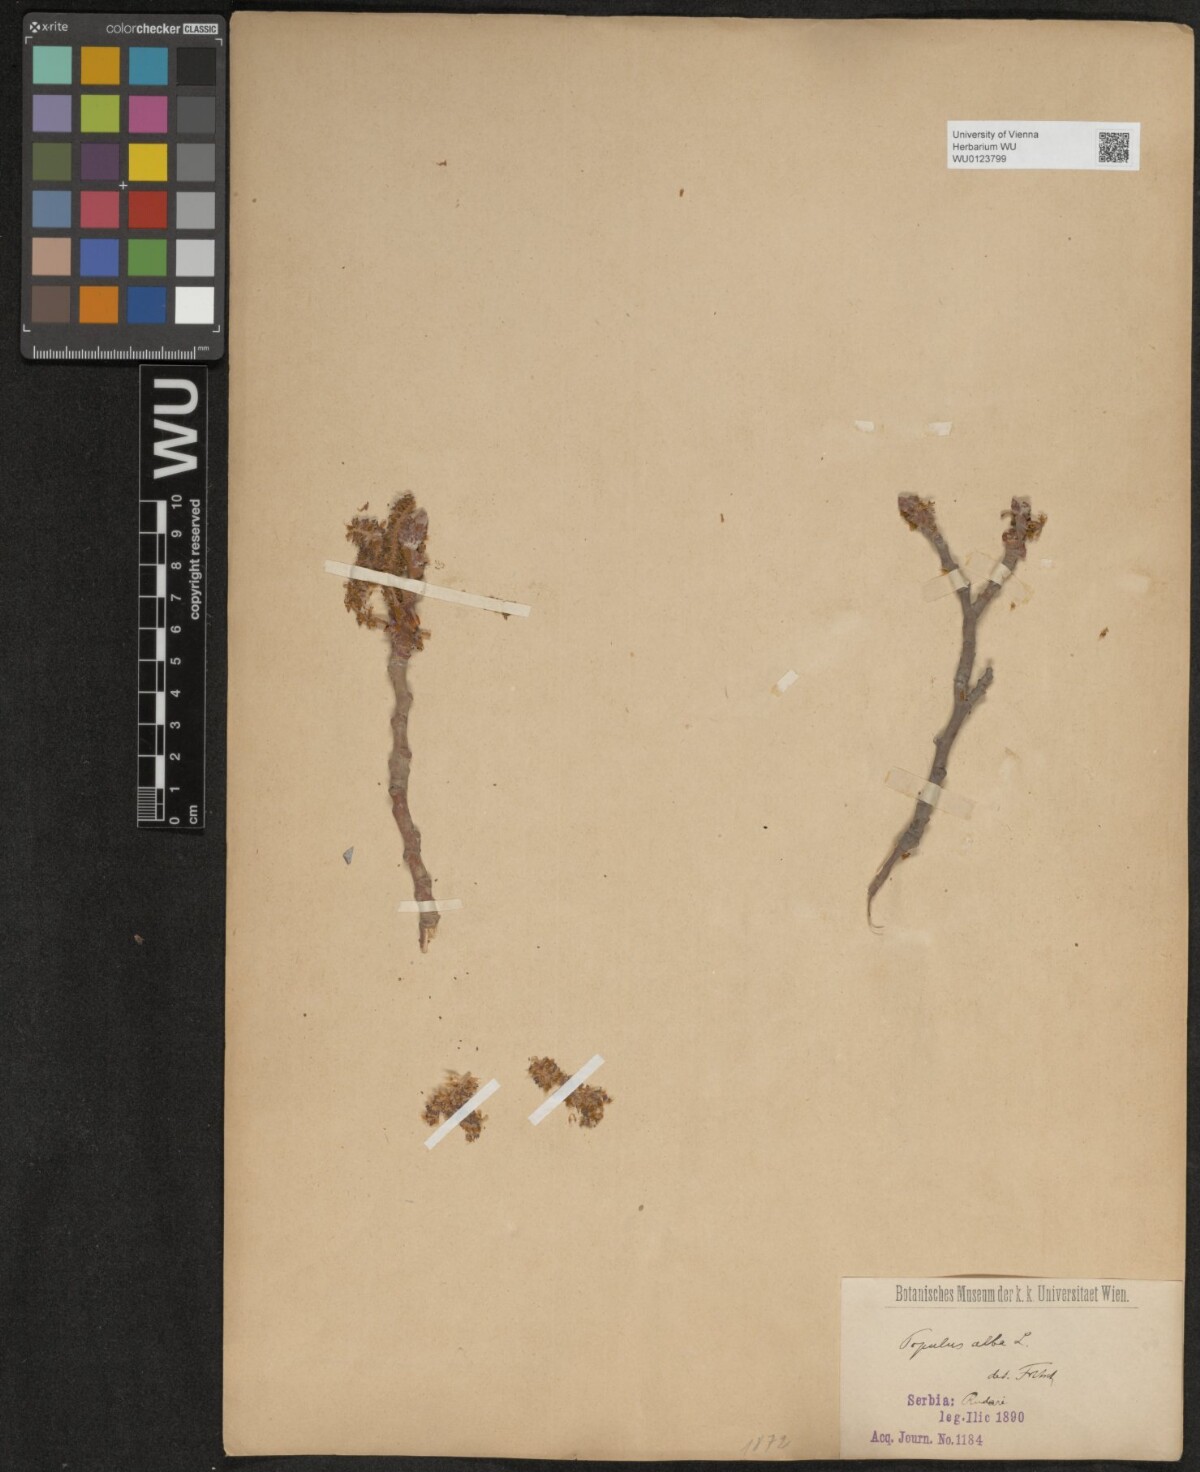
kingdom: Plantae
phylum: Tracheophyta
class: Magnoliopsida
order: Malpighiales
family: Salicaceae
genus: Populus
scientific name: Populus alba
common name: White poplar
